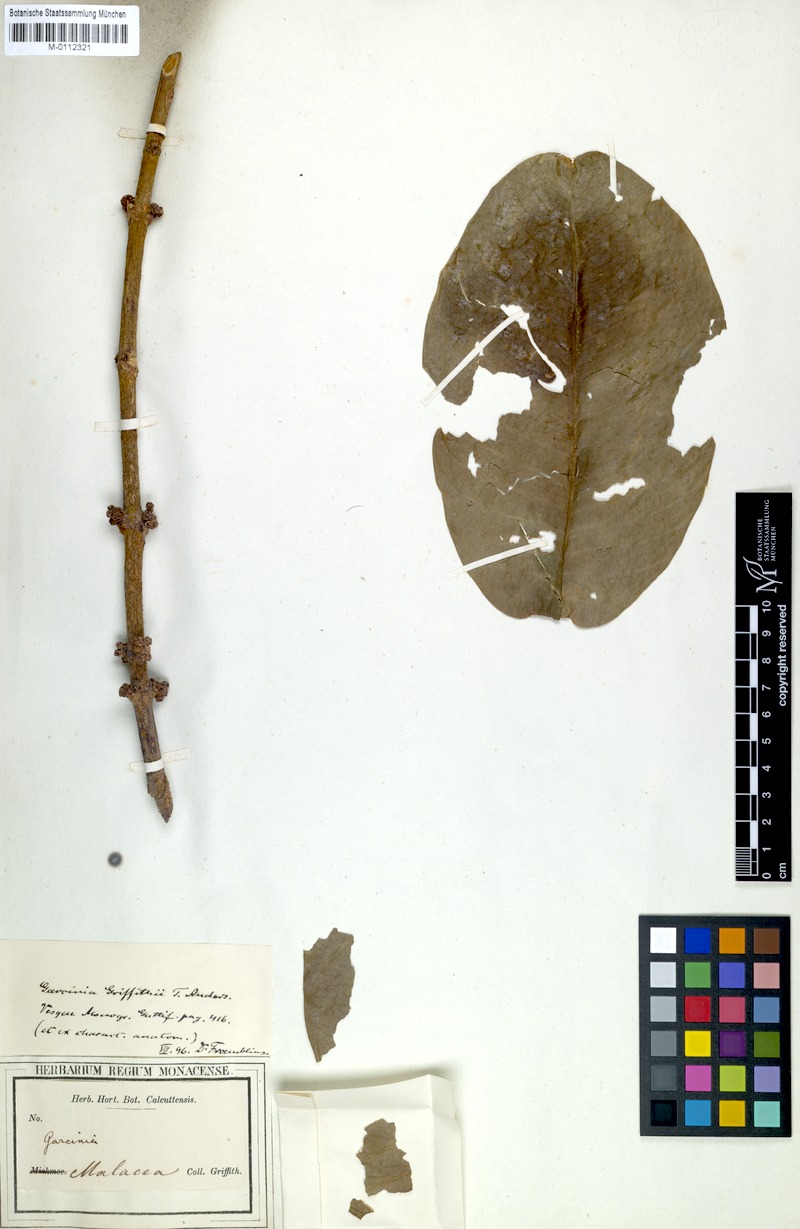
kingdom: Plantae
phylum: Tracheophyta
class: Magnoliopsida
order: Malpighiales
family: Clusiaceae
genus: Garcinia
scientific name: Garcinia griffithii
